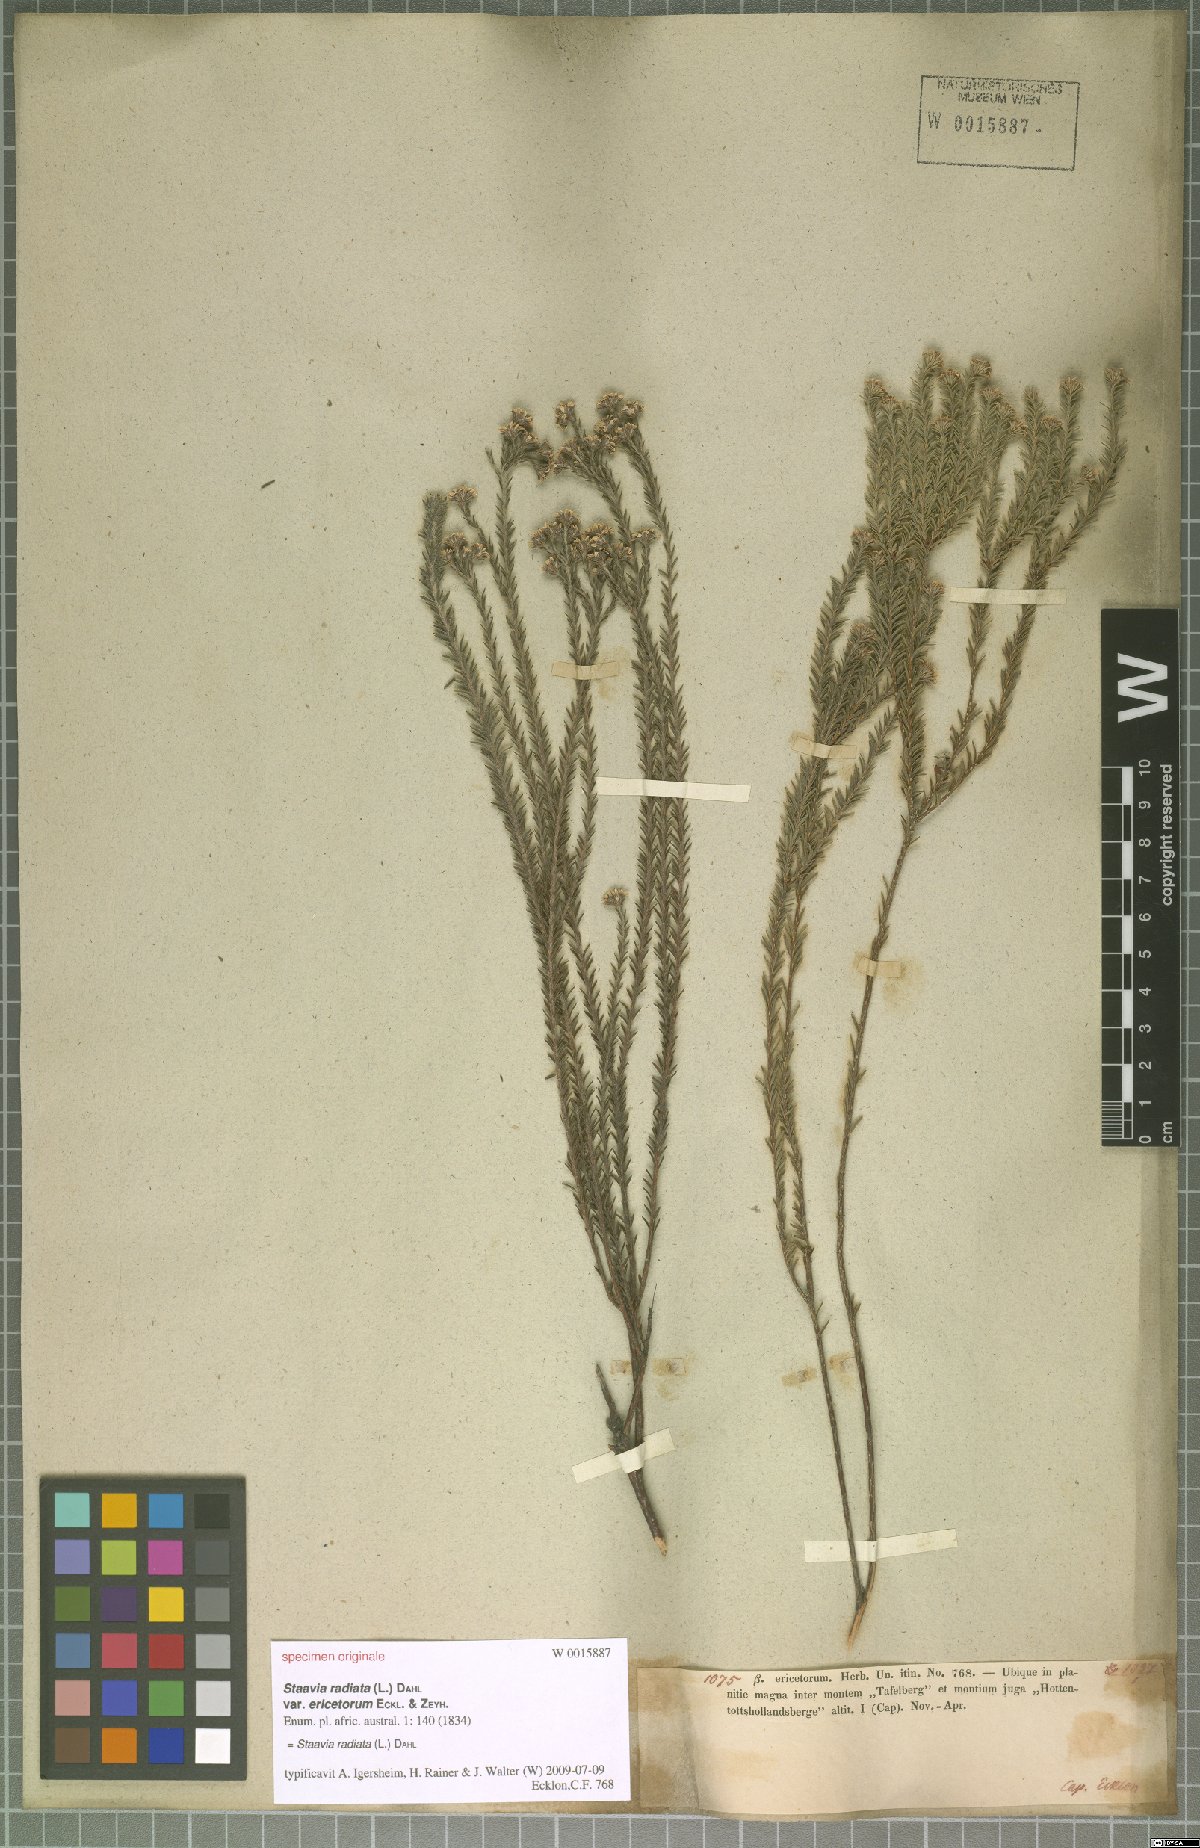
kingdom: Plantae
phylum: Tracheophyta
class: Magnoliopsida
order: Bruniales
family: Bruniaceae
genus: Staavia
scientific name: Staavia radiata
